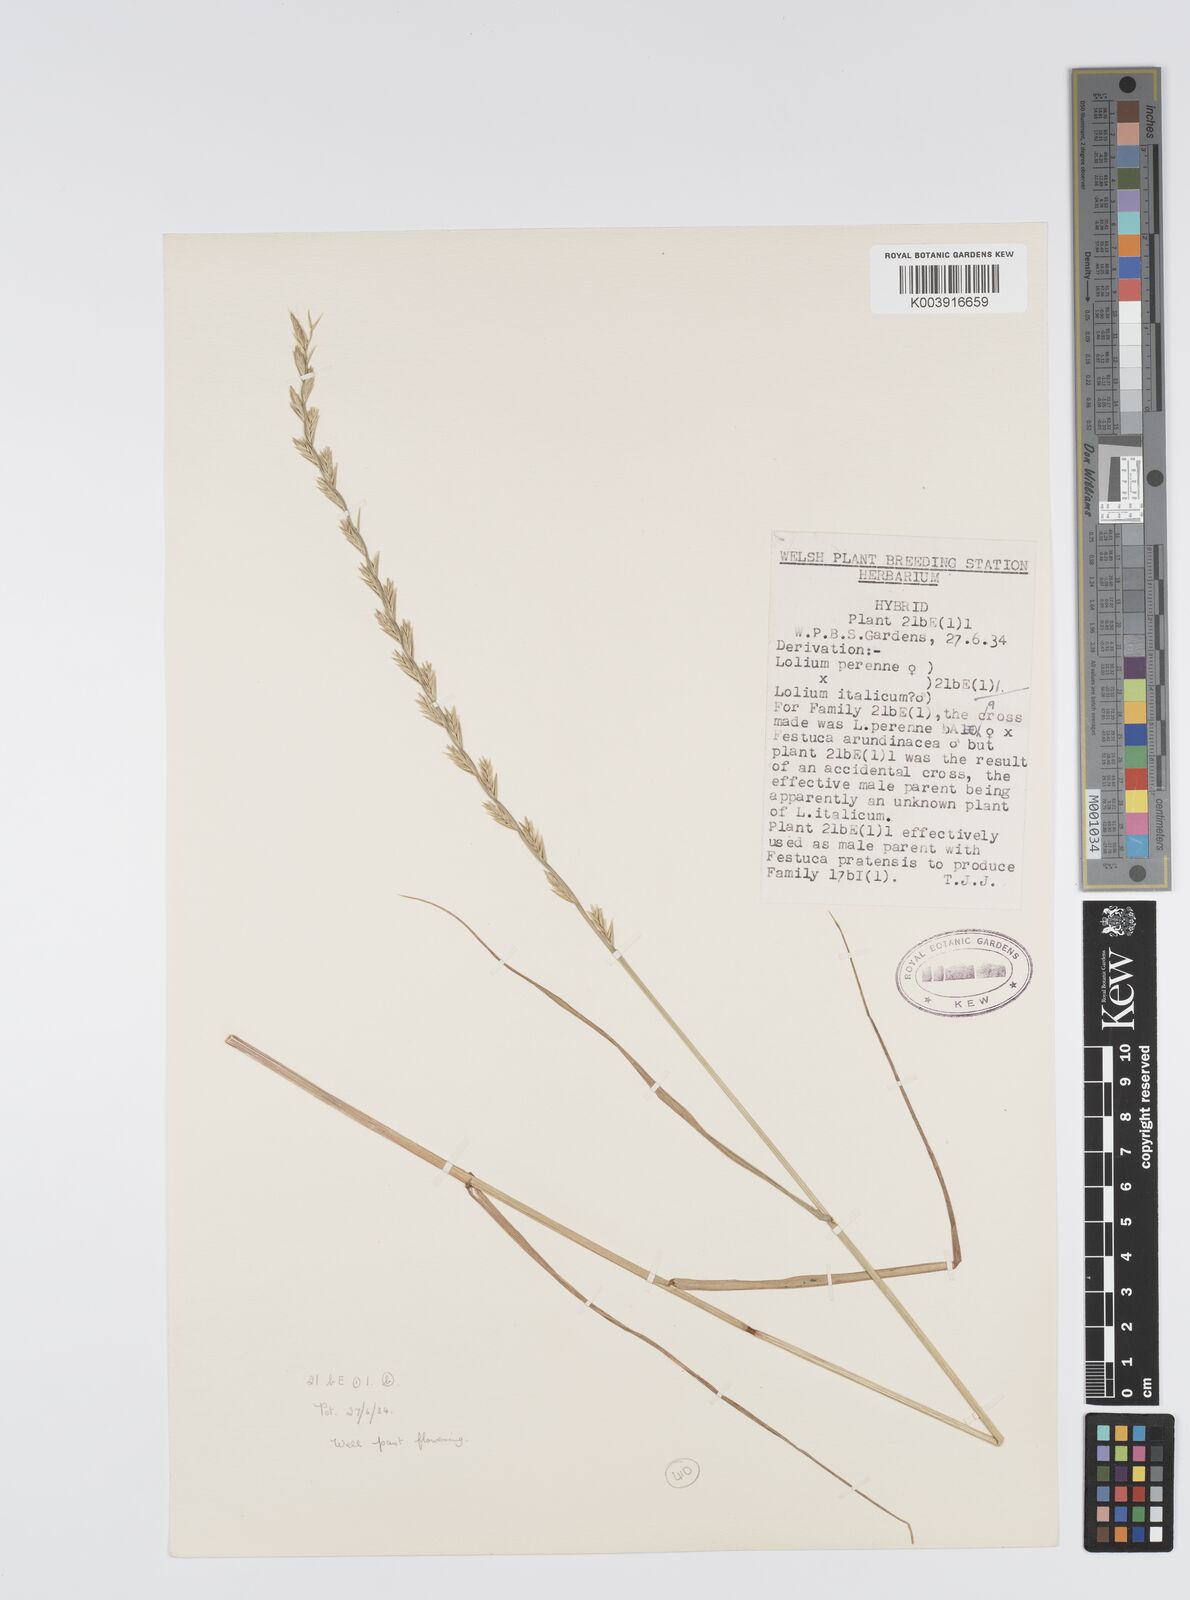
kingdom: Plantae
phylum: Tracheophyta
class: Liliopsida
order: Poales
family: Poaceae
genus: Lolium
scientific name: Lolium perenne
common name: Perennial ryegrass
